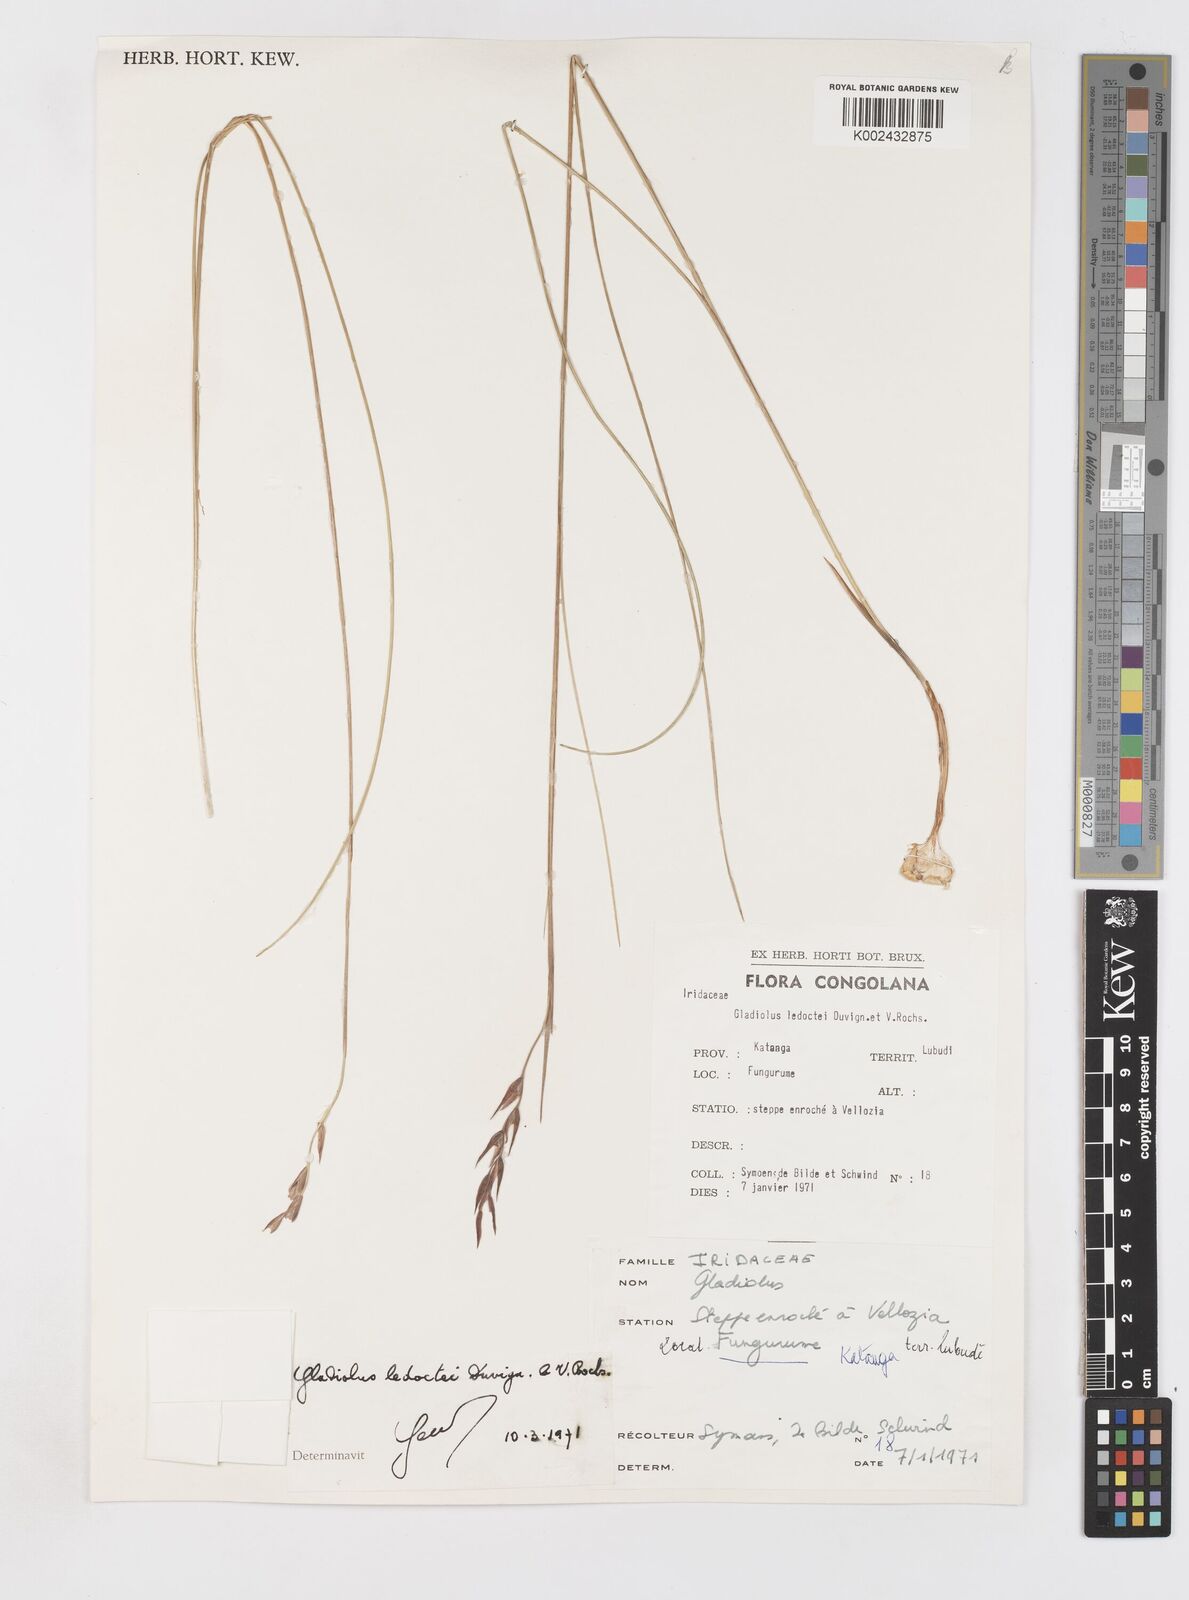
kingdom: Plantae
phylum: Tracheophyta
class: Liliopsida
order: Asparagales
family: Iridaceae
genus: Gladiolus
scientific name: Gladiolus ledoctei
